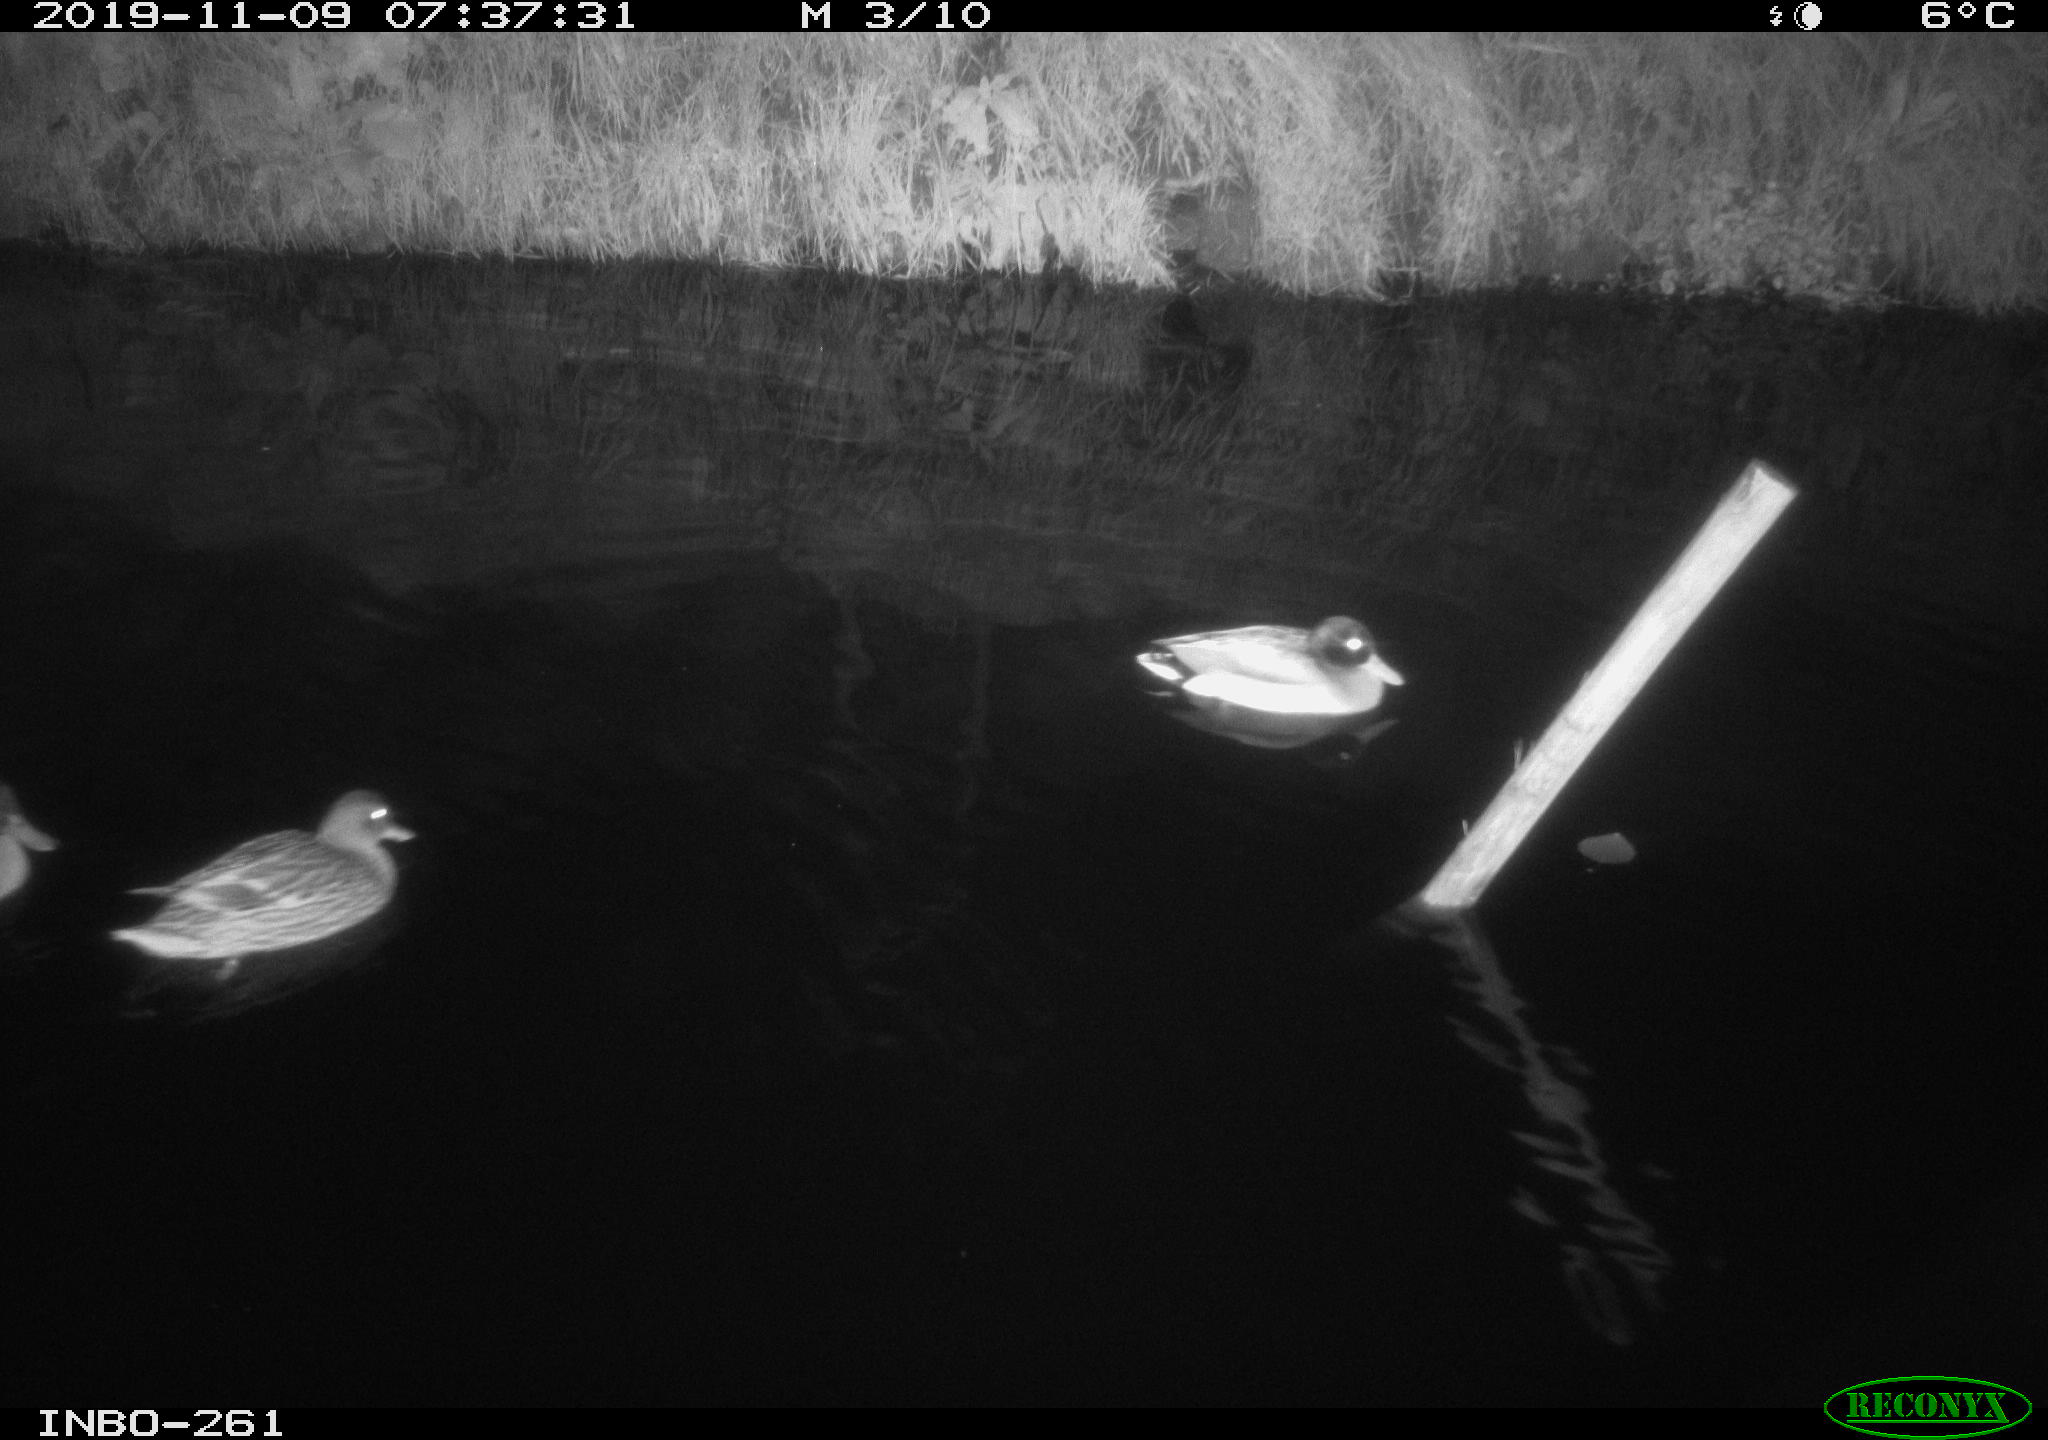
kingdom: Animalia
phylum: Chordata
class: Aves
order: Anseriformes
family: Anatidae
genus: Anas
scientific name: Anas platyrhynchos
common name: Mallard
